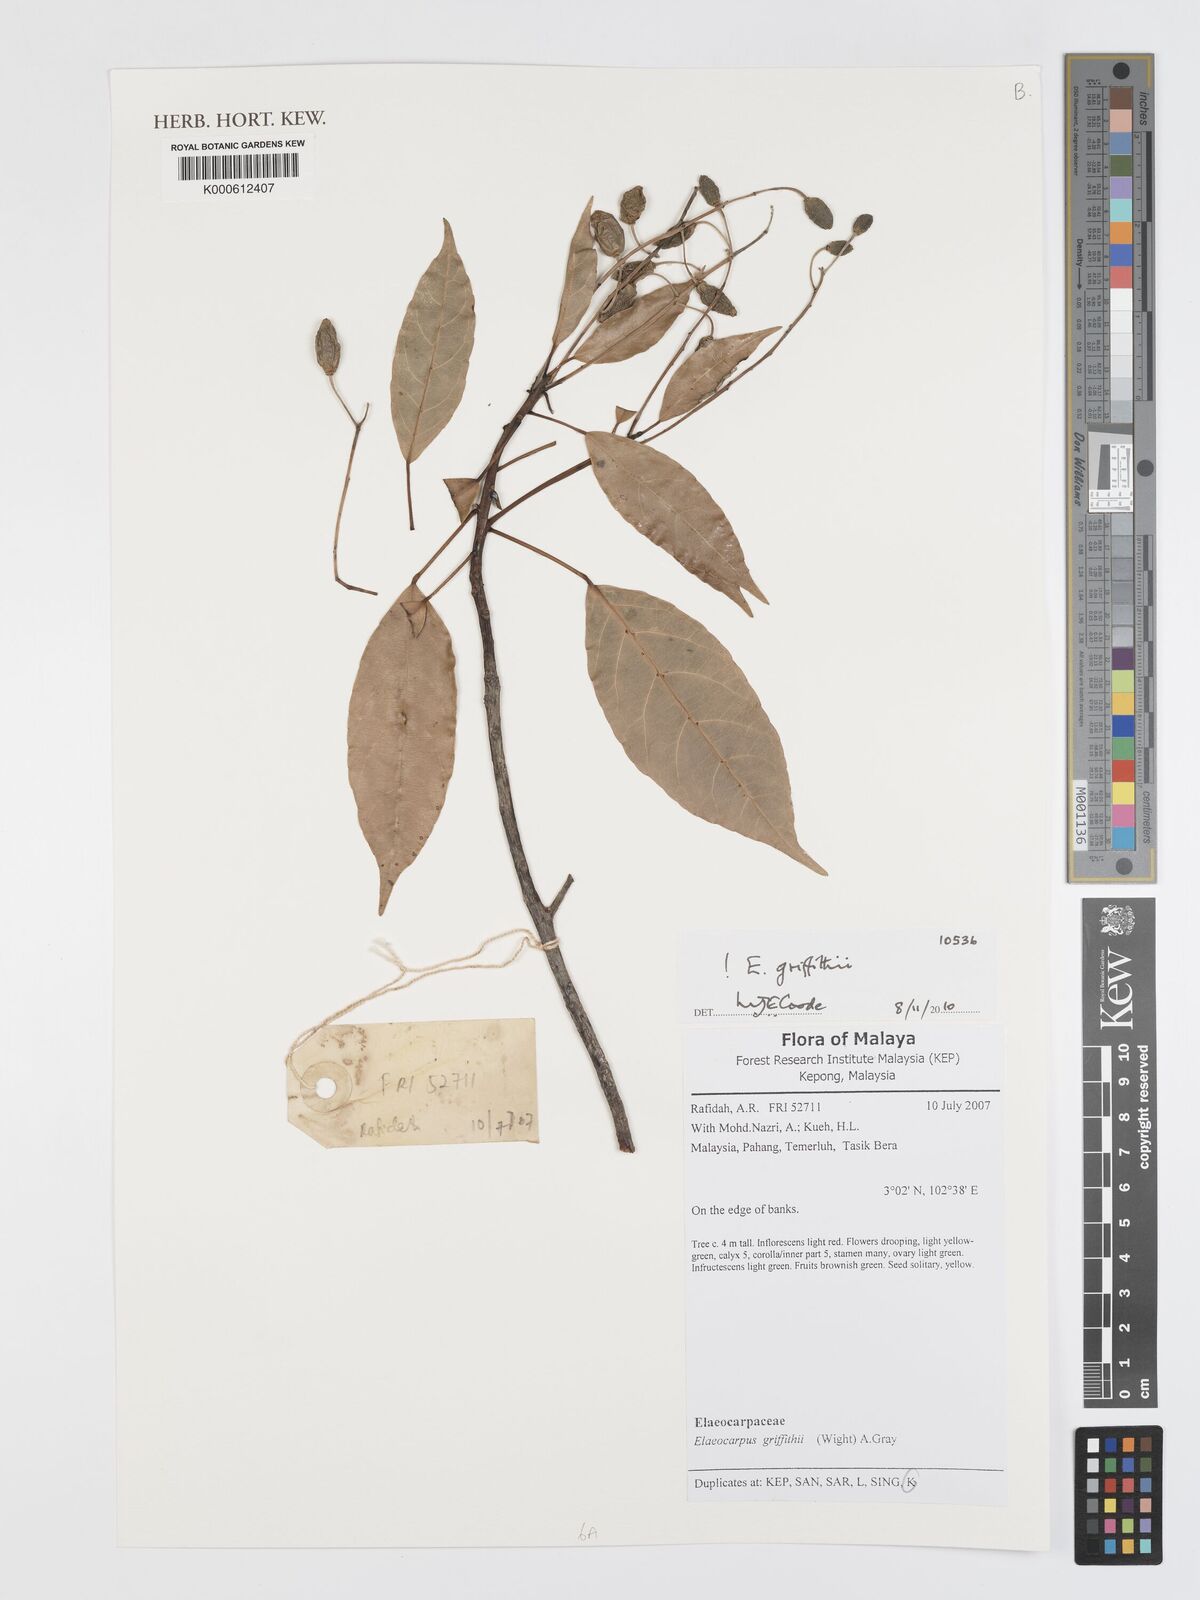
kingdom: Plantae
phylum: Tracheophyta
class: Magnoliopsida
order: Oxalidales
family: Elaeocarpaceae
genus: Elaeocarpus
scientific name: Elaeocarpus griffithii
